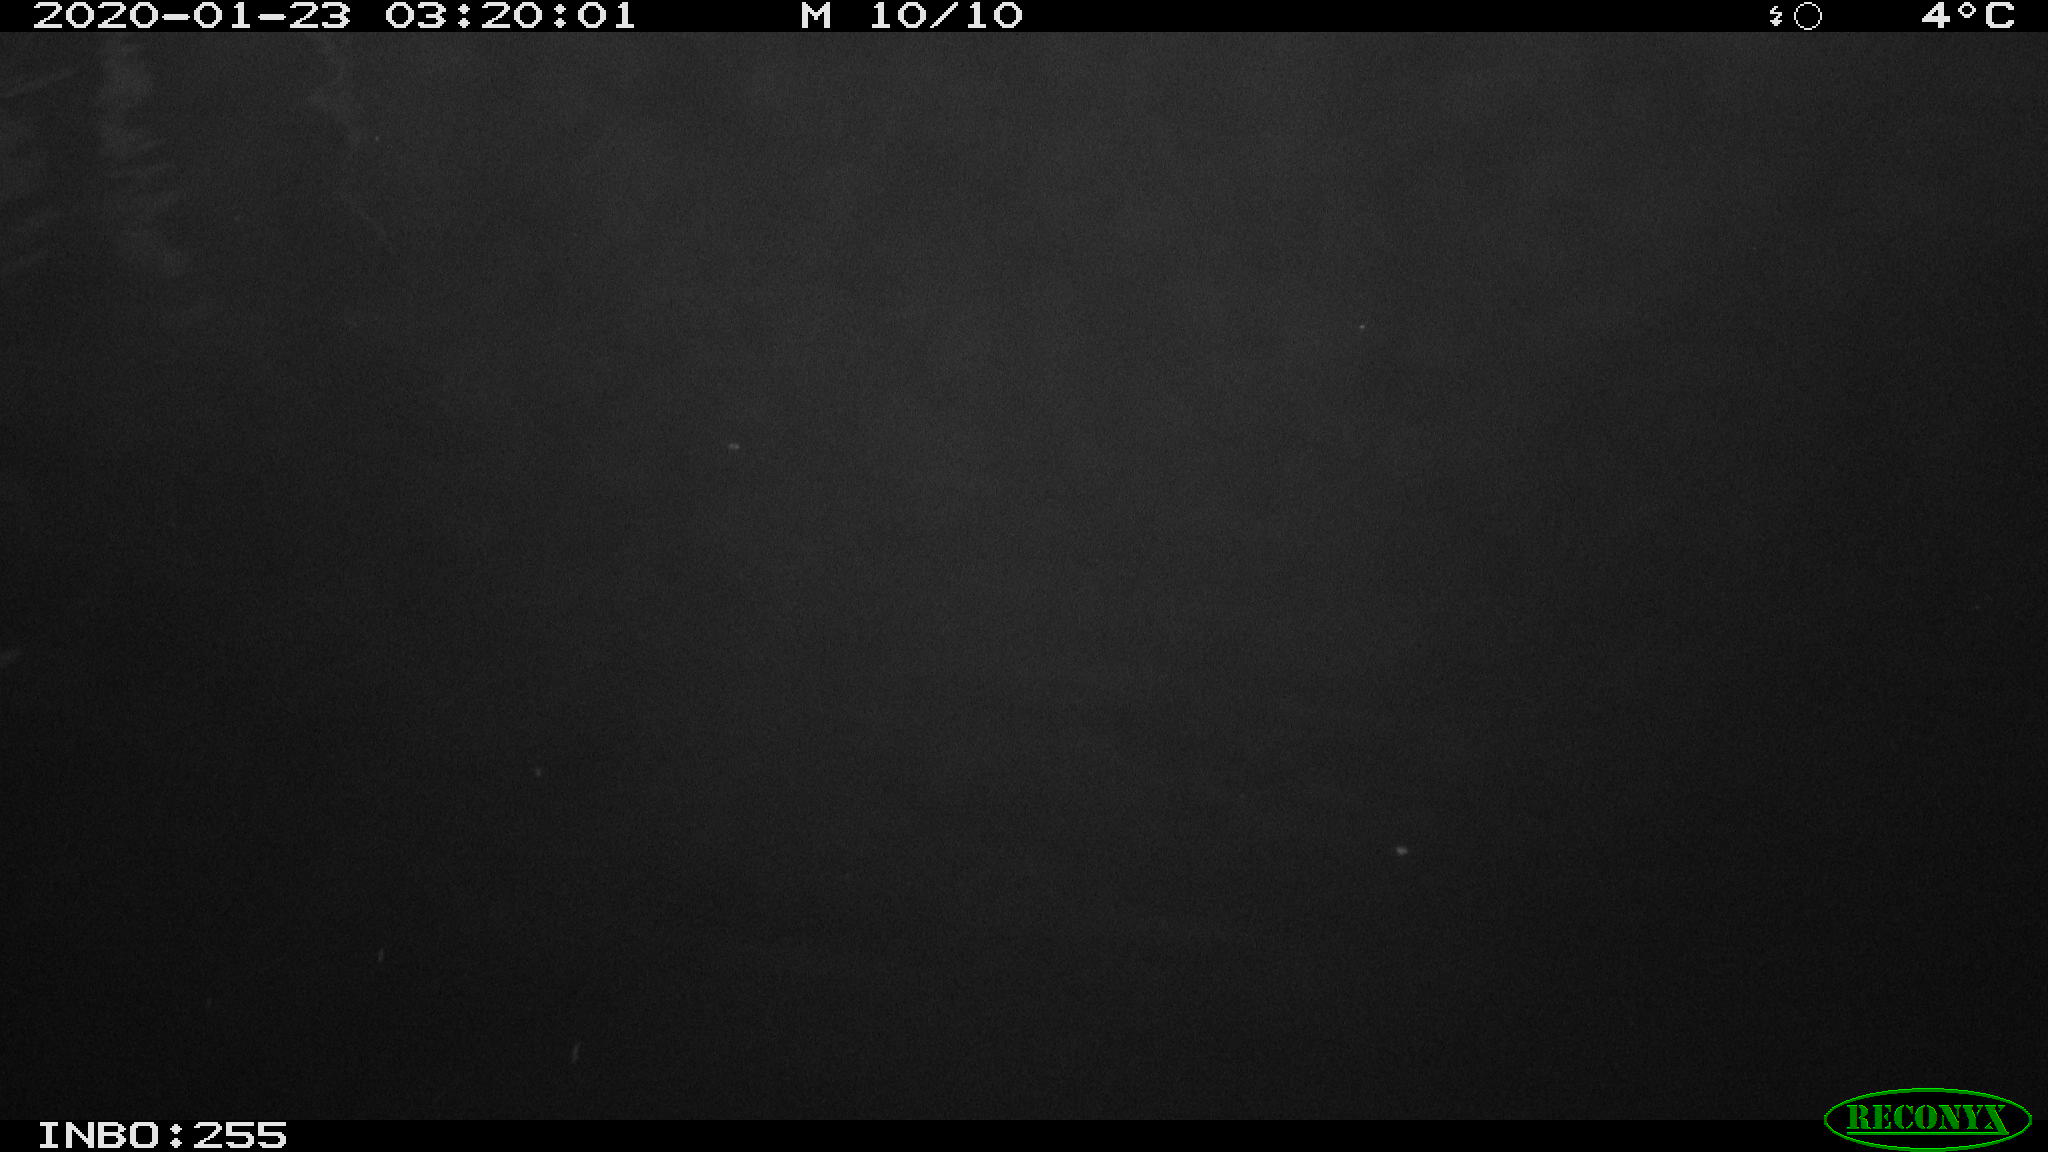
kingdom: Animalia
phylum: Chordata
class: Mammalia
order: Rodentia
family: Cricetidae
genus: Ondatra
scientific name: Ondatra zibethicus
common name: Muskrat
